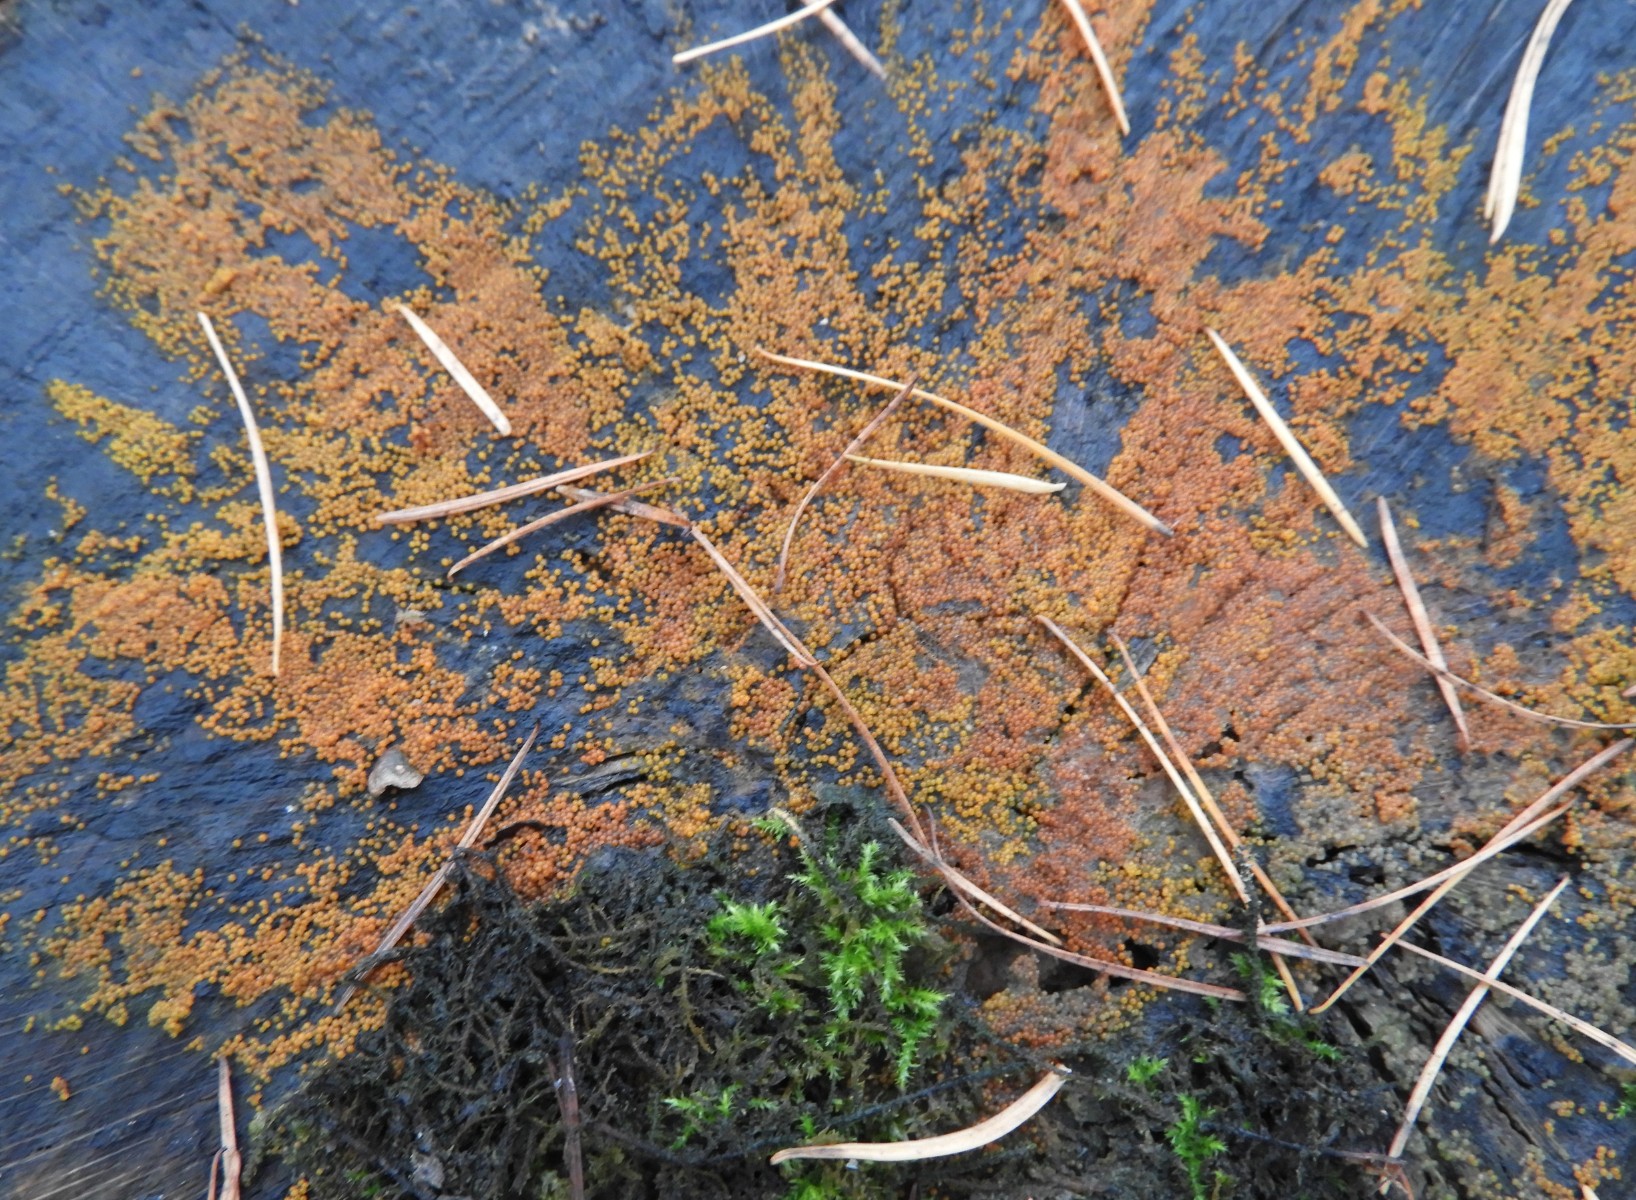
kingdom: Fungi
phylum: Ascomycota
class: Sordariomycetes
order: Hypocreales
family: Nectriaceae
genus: Hydropisphaera
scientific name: Hydropisphaera peziza
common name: skålformet gyldenkerne
